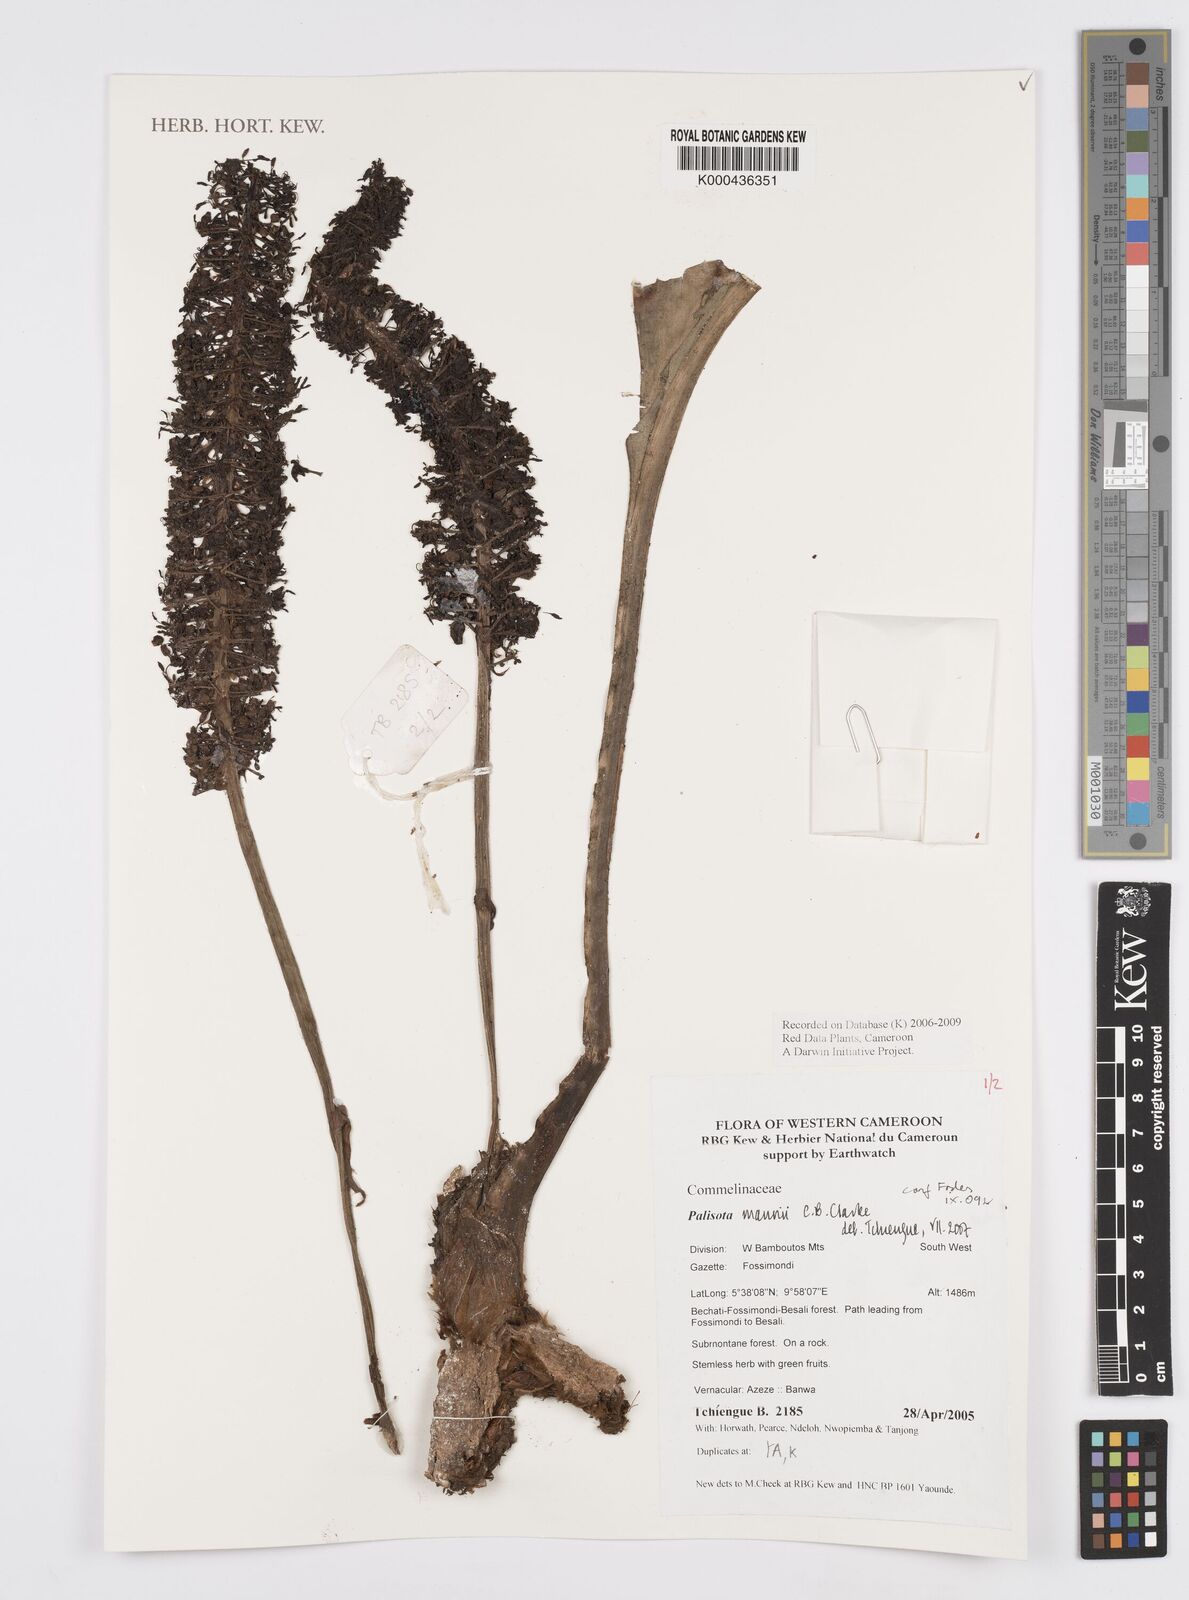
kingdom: Plantae
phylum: Tracheophyta
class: Liliopsida
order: Commelinales
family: Commelinaceae
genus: Palisota
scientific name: Palisota mannii
